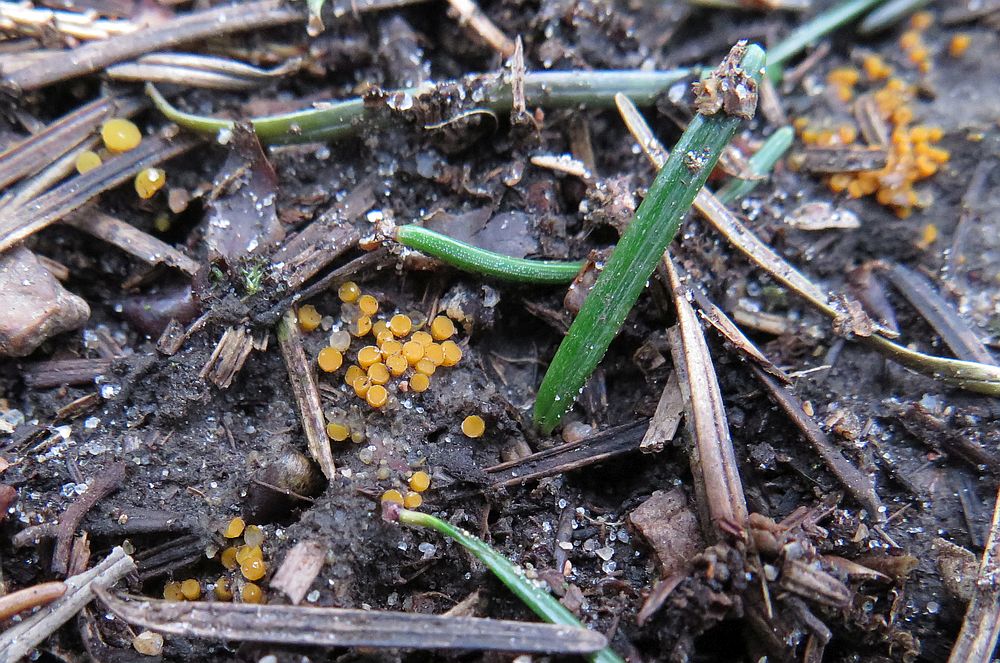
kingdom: Fungi
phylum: Ascomycota
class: Pezizomycetes
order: Pezizales
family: Pyronemataceae
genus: Byssonectria
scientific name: Byssonectria terrestris
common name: hjortebæger
